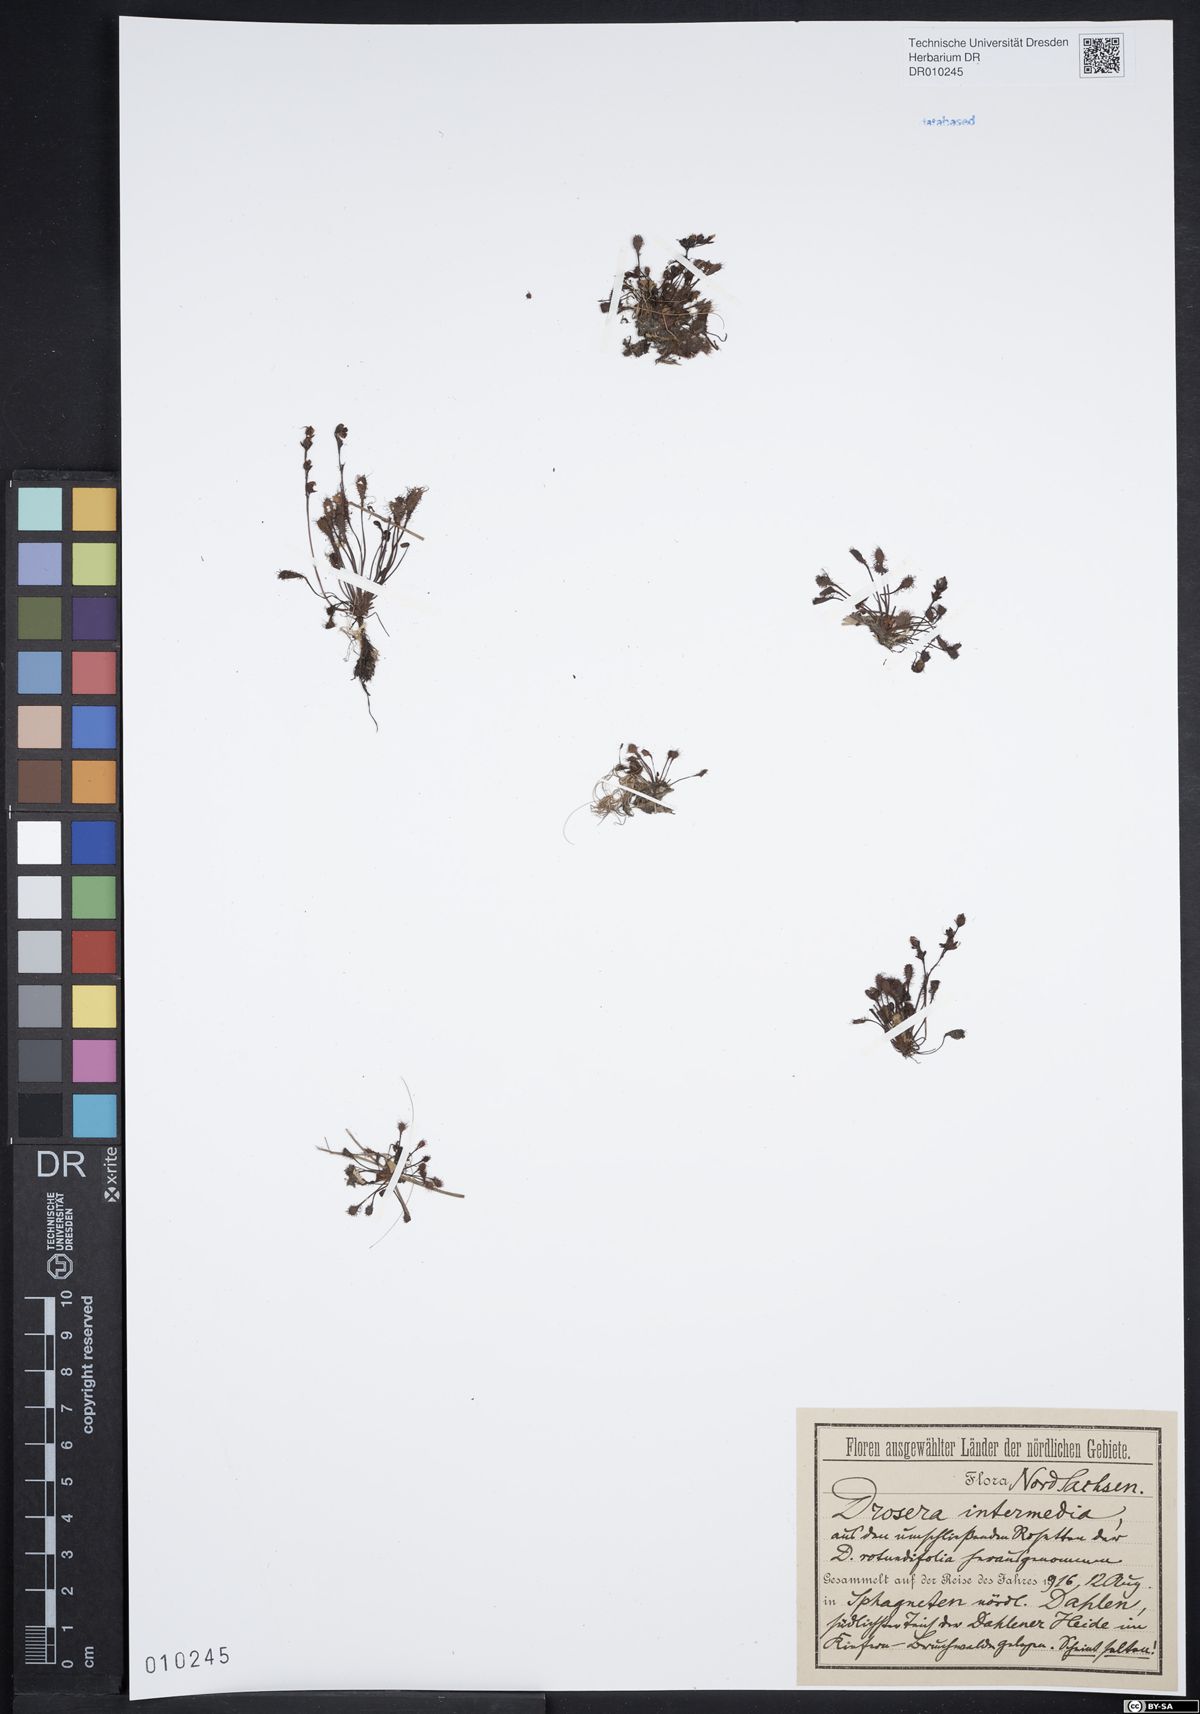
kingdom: Plantae
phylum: Tracheophyta
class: Magnoliopsida
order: Caryophyllales
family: Droseraceae
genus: Drosera
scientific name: Drosera intermedia
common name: Oblong-leaved sundew
